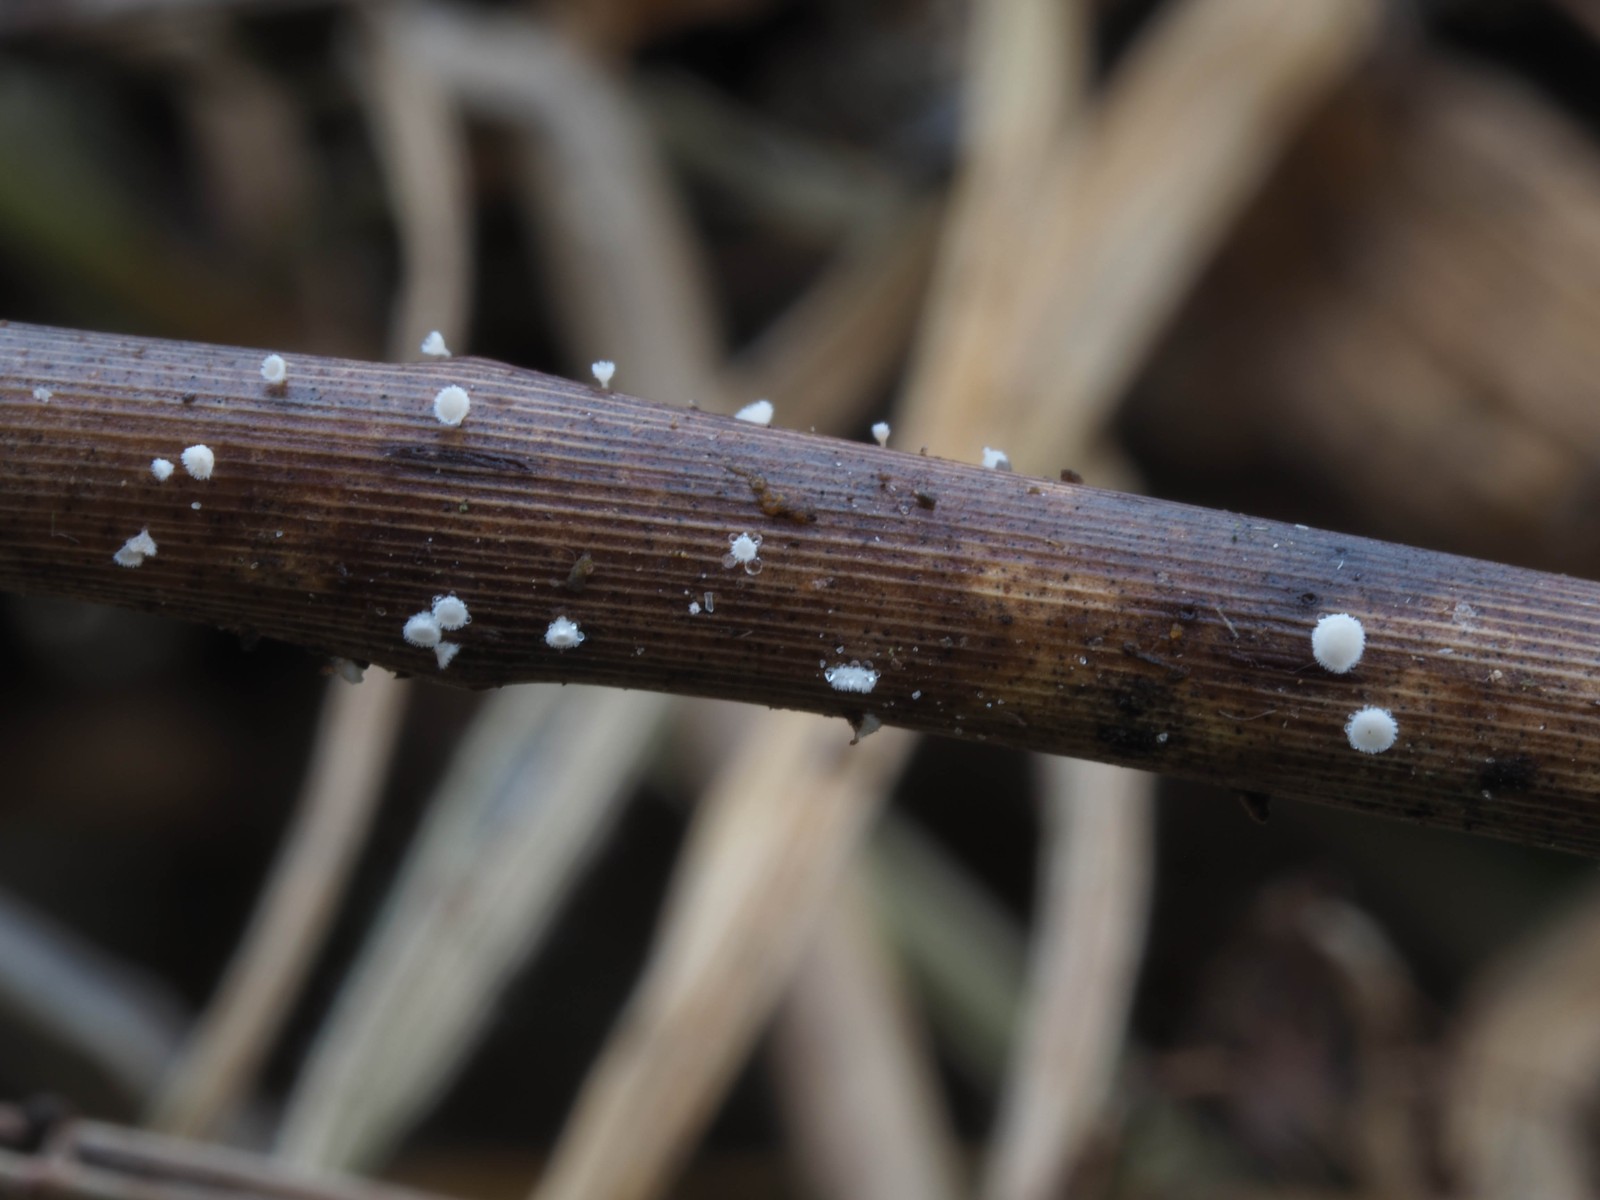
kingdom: Fungi
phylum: Ascomycota
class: Leotiomycetes
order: Helotiales
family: Lachnaceae
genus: Lachnum
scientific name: Lachnum apalum
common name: siv-frynseskive
